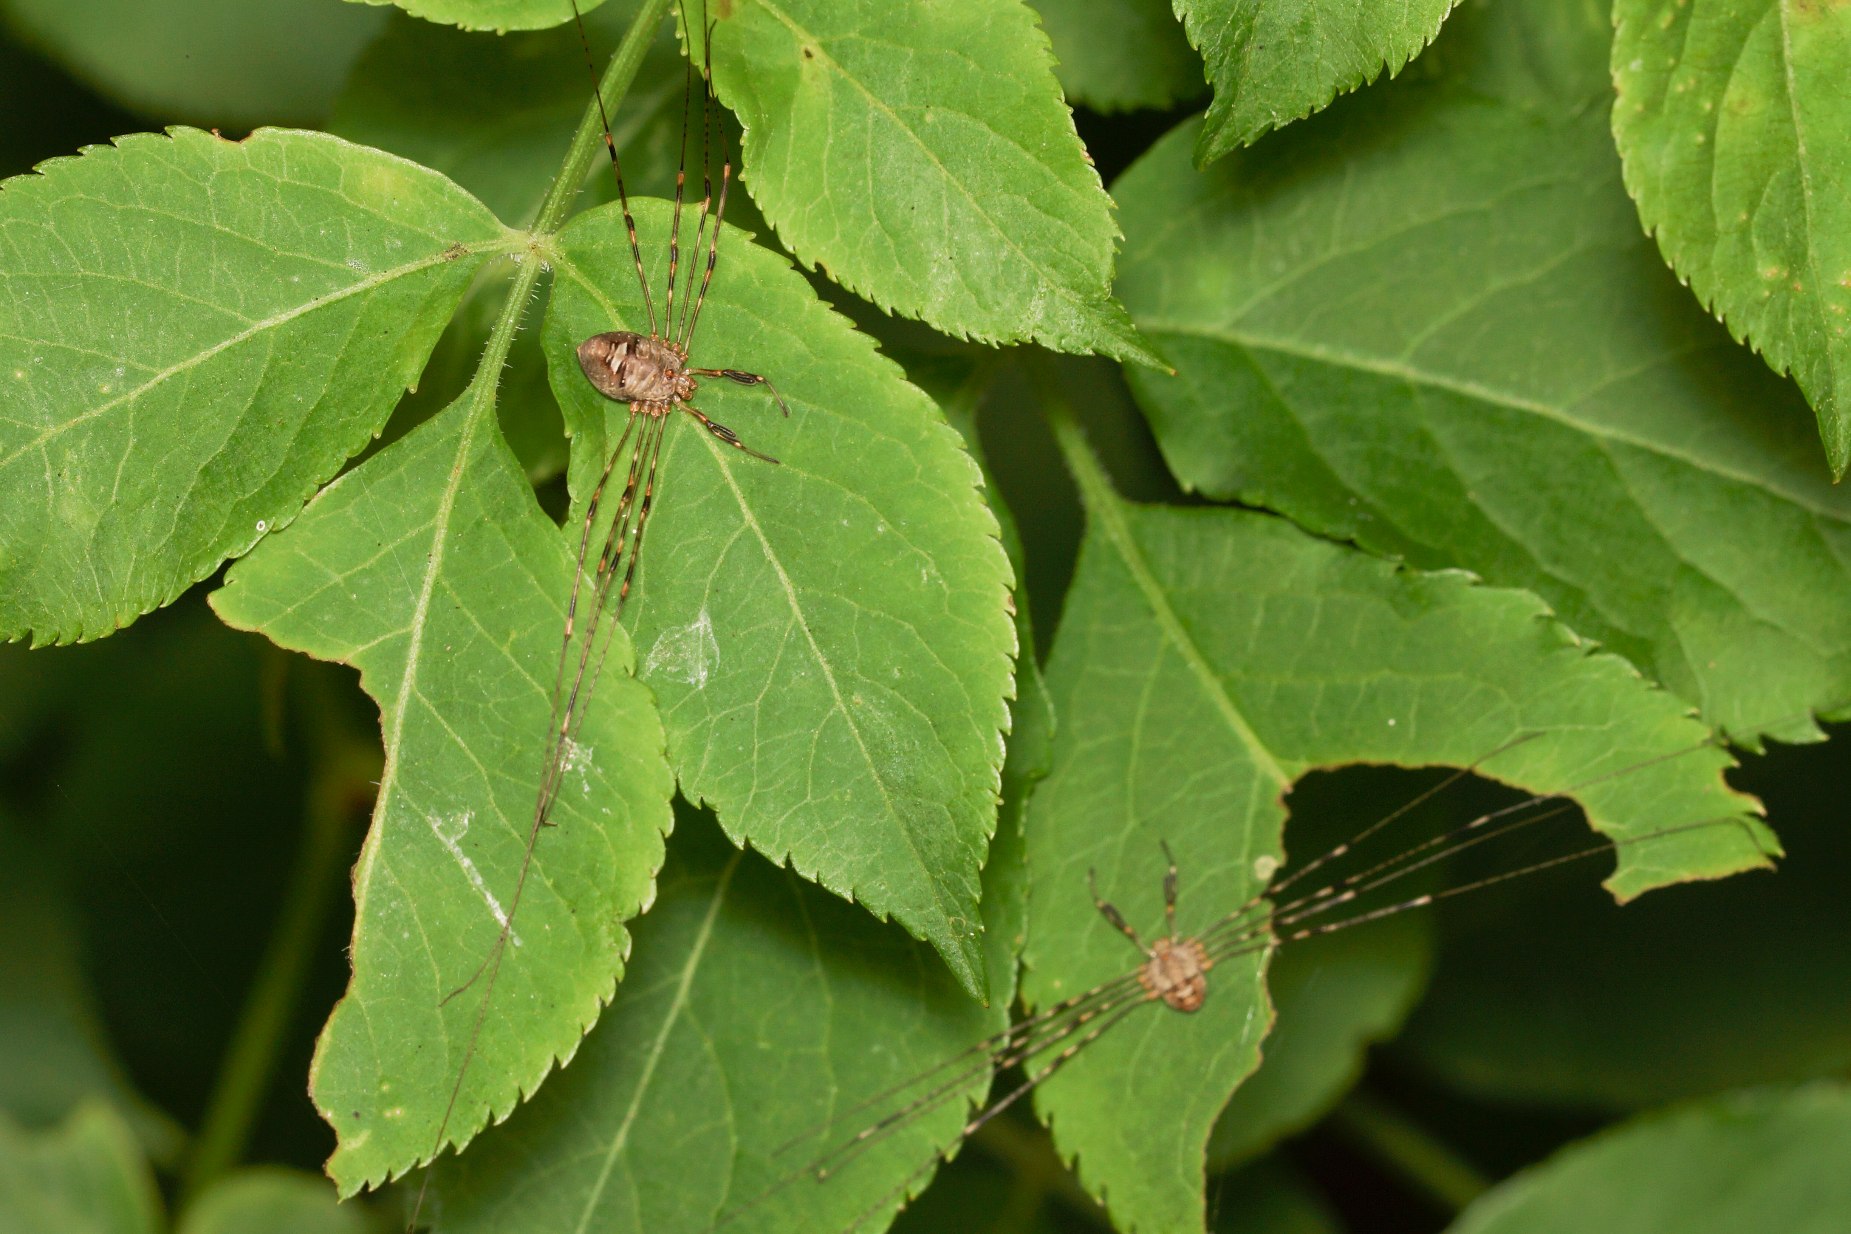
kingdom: Animalia
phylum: Arthropoda
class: Arachnida
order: Opiliones
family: Phalangiidae
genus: Dicranopalpus
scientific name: Dicranopalpus ramosus
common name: Gaffelmejer
